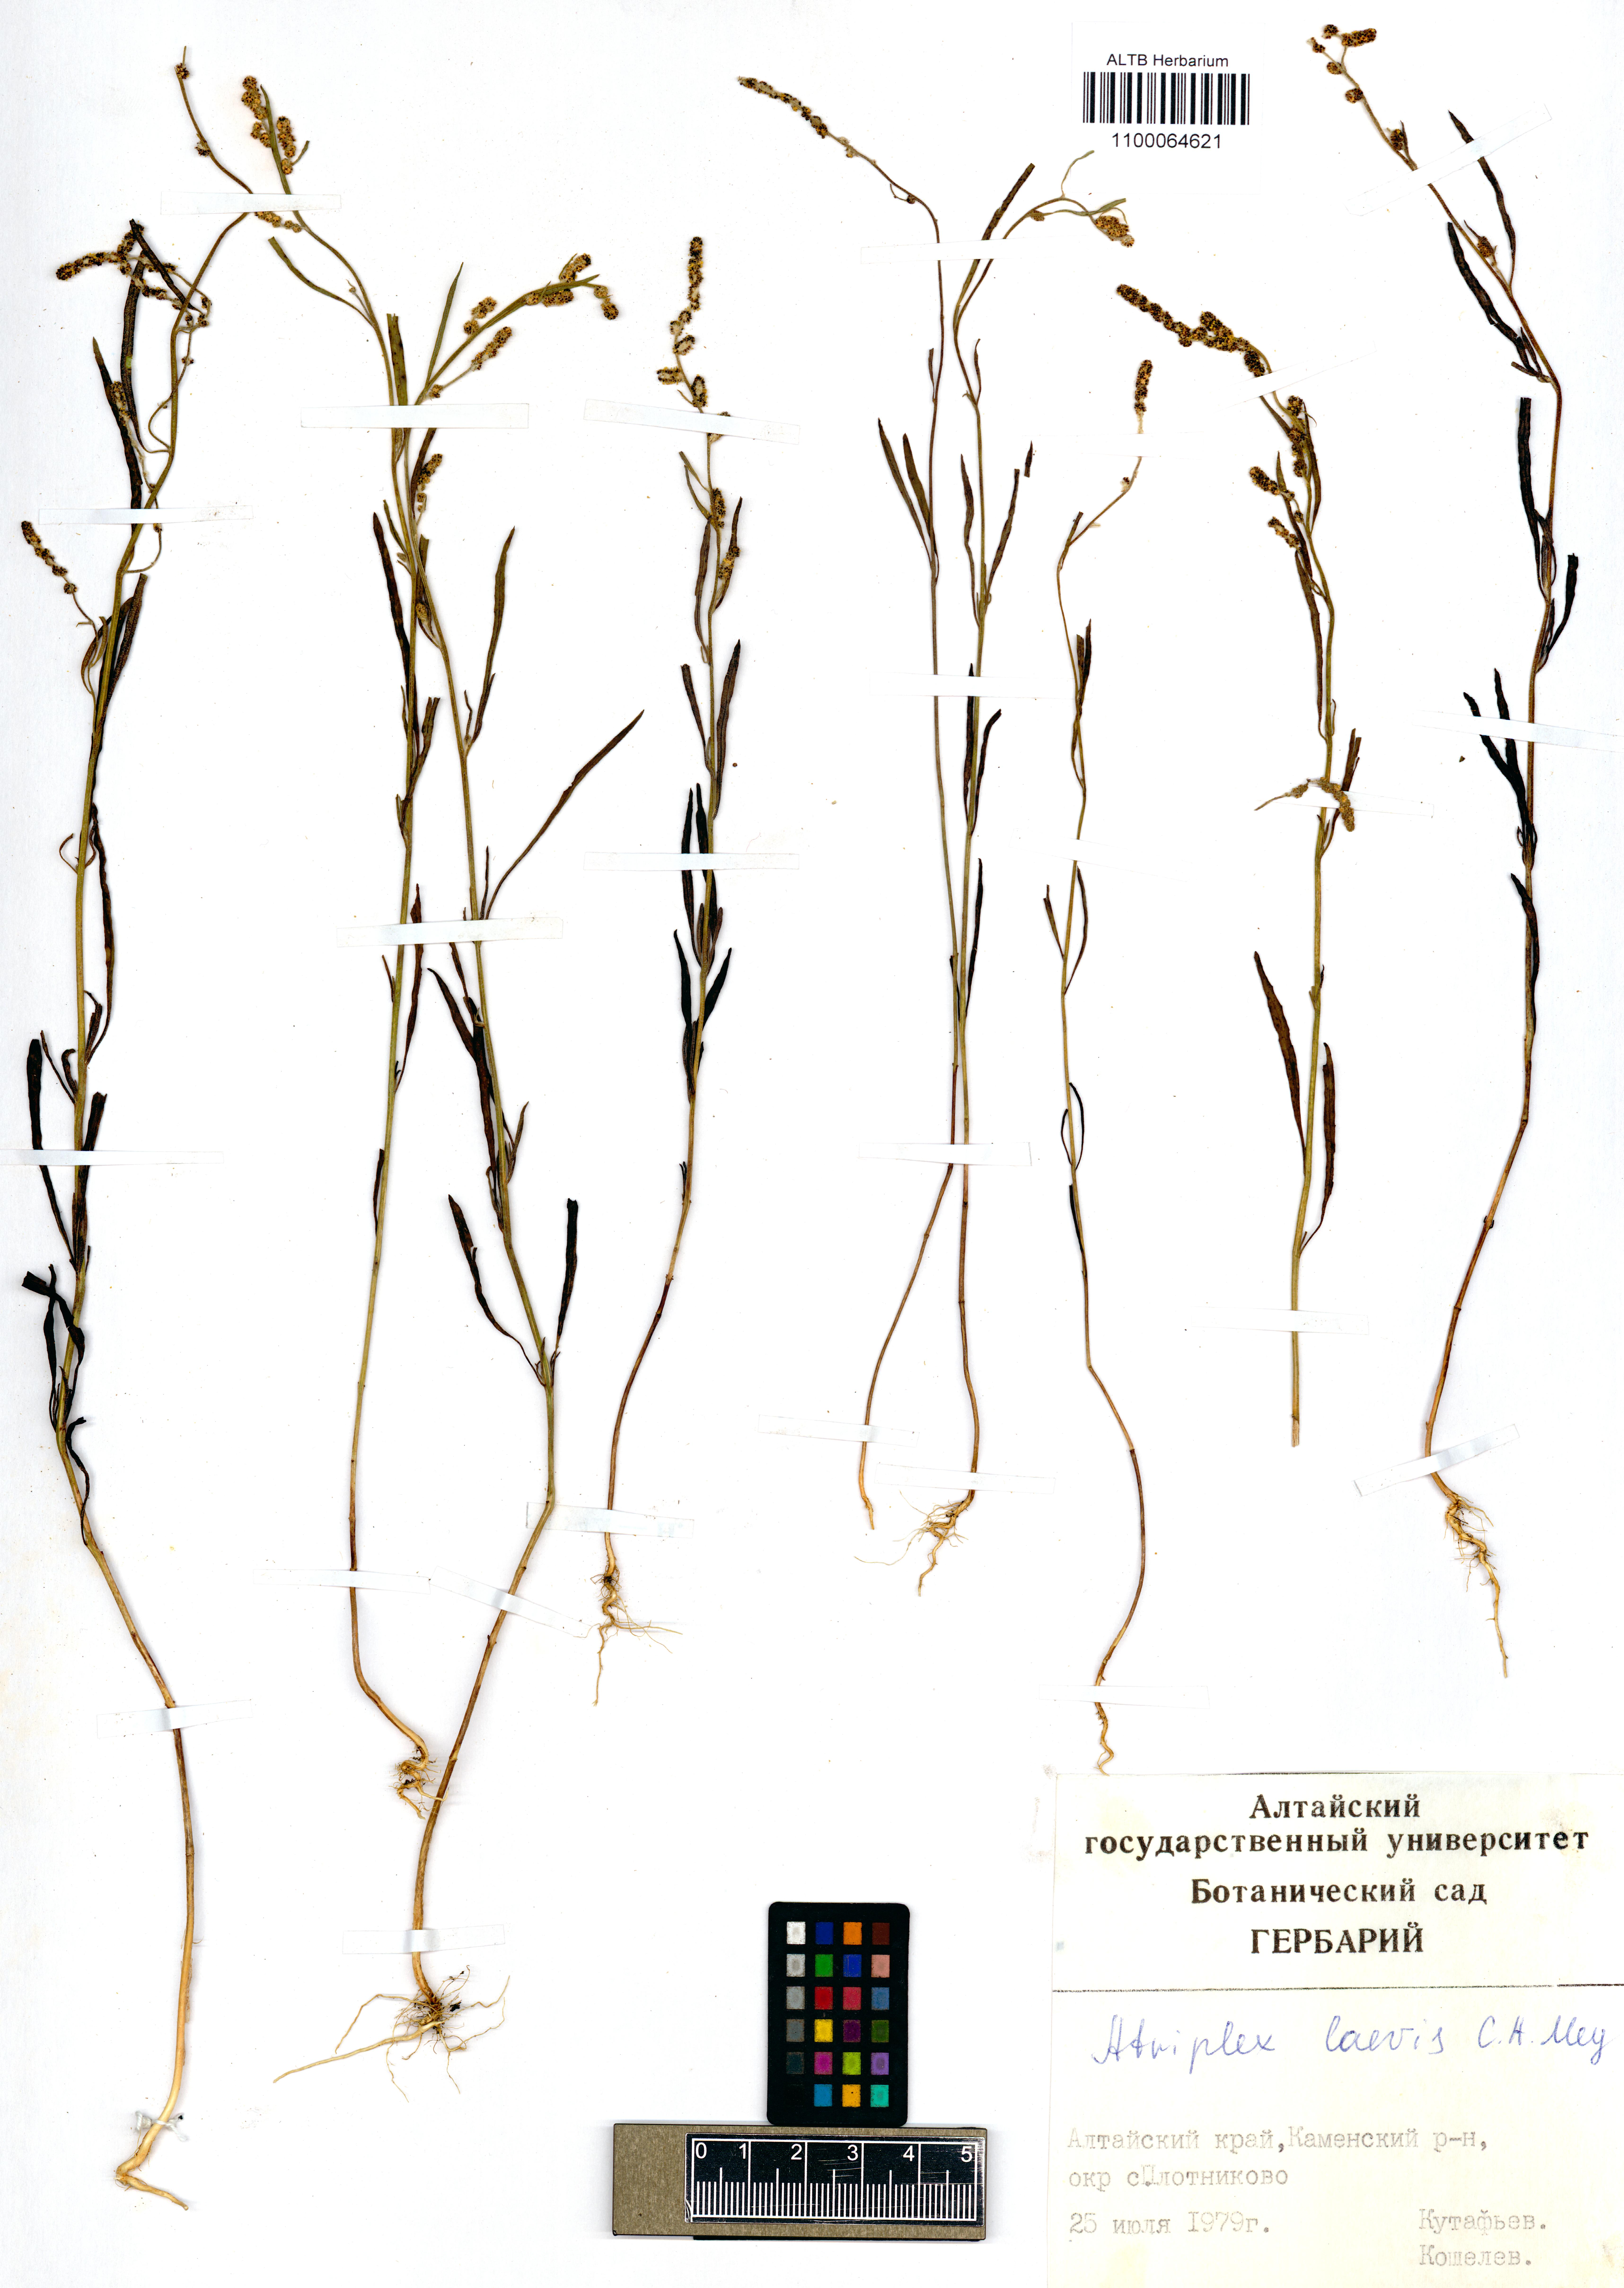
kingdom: Plantae
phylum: Tracheophyta
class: Magnoliopsida
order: Caryophyllales
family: Amaranthaceae
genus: Atriplex
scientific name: Atriplex laevis
